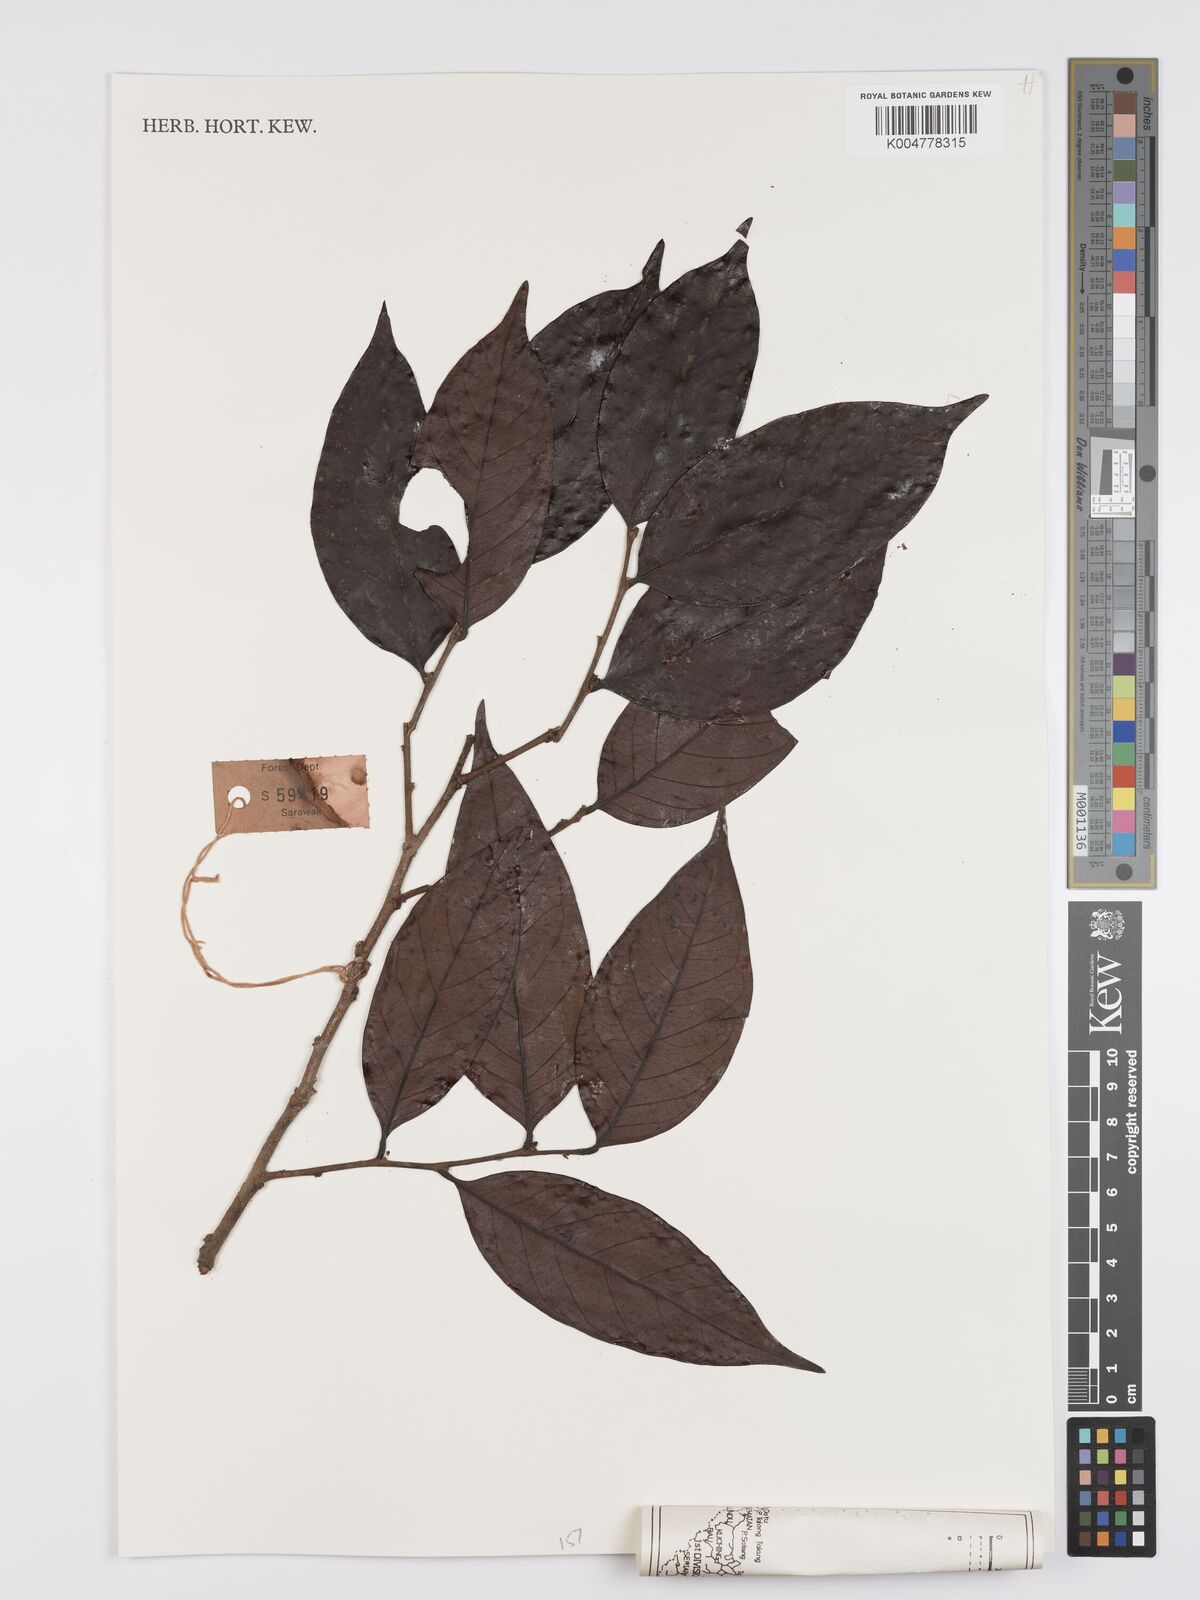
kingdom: Plantae
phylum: Tracheophyta
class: Magnoliopsida
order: Malpighiales
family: Peraceae
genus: Chaetocarpus
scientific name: Chaetocarpus
